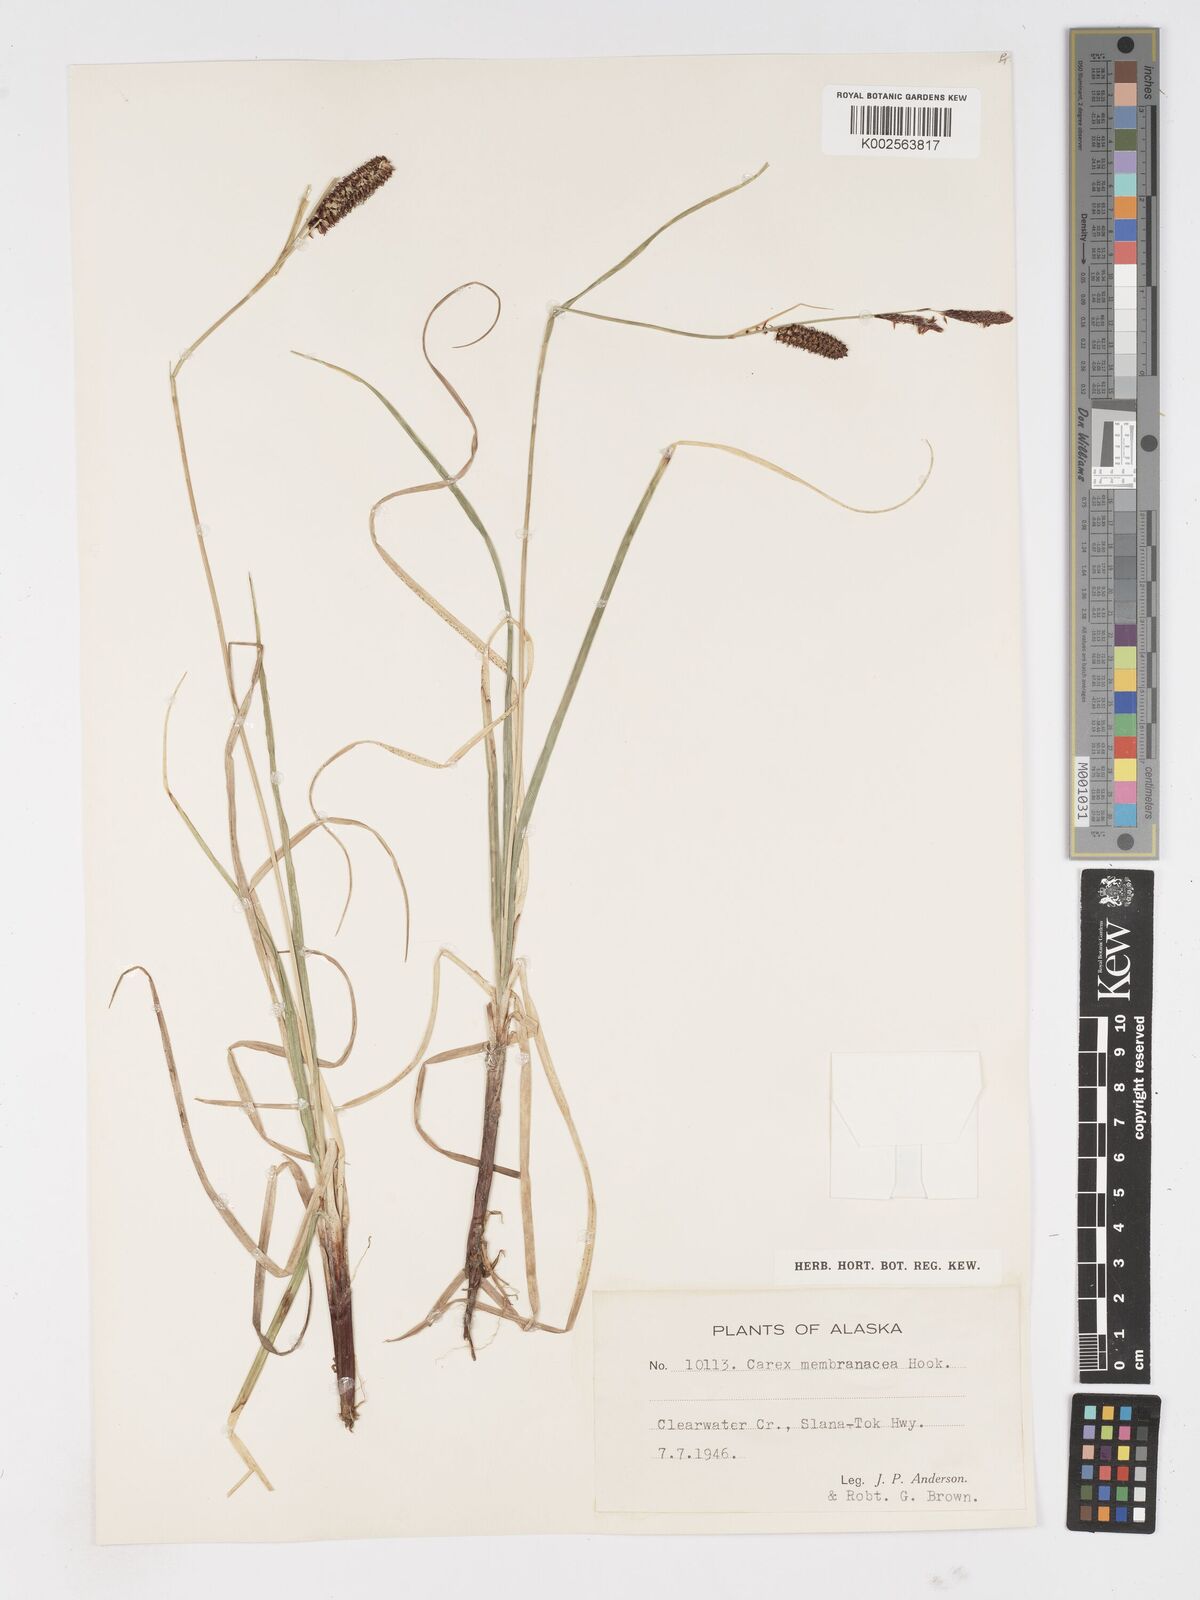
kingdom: Plantae
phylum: Tracheophyta
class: Liliopsida
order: Poales
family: Cyperaceae
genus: Carex
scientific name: Carex membranacea
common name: Fragile sedge
